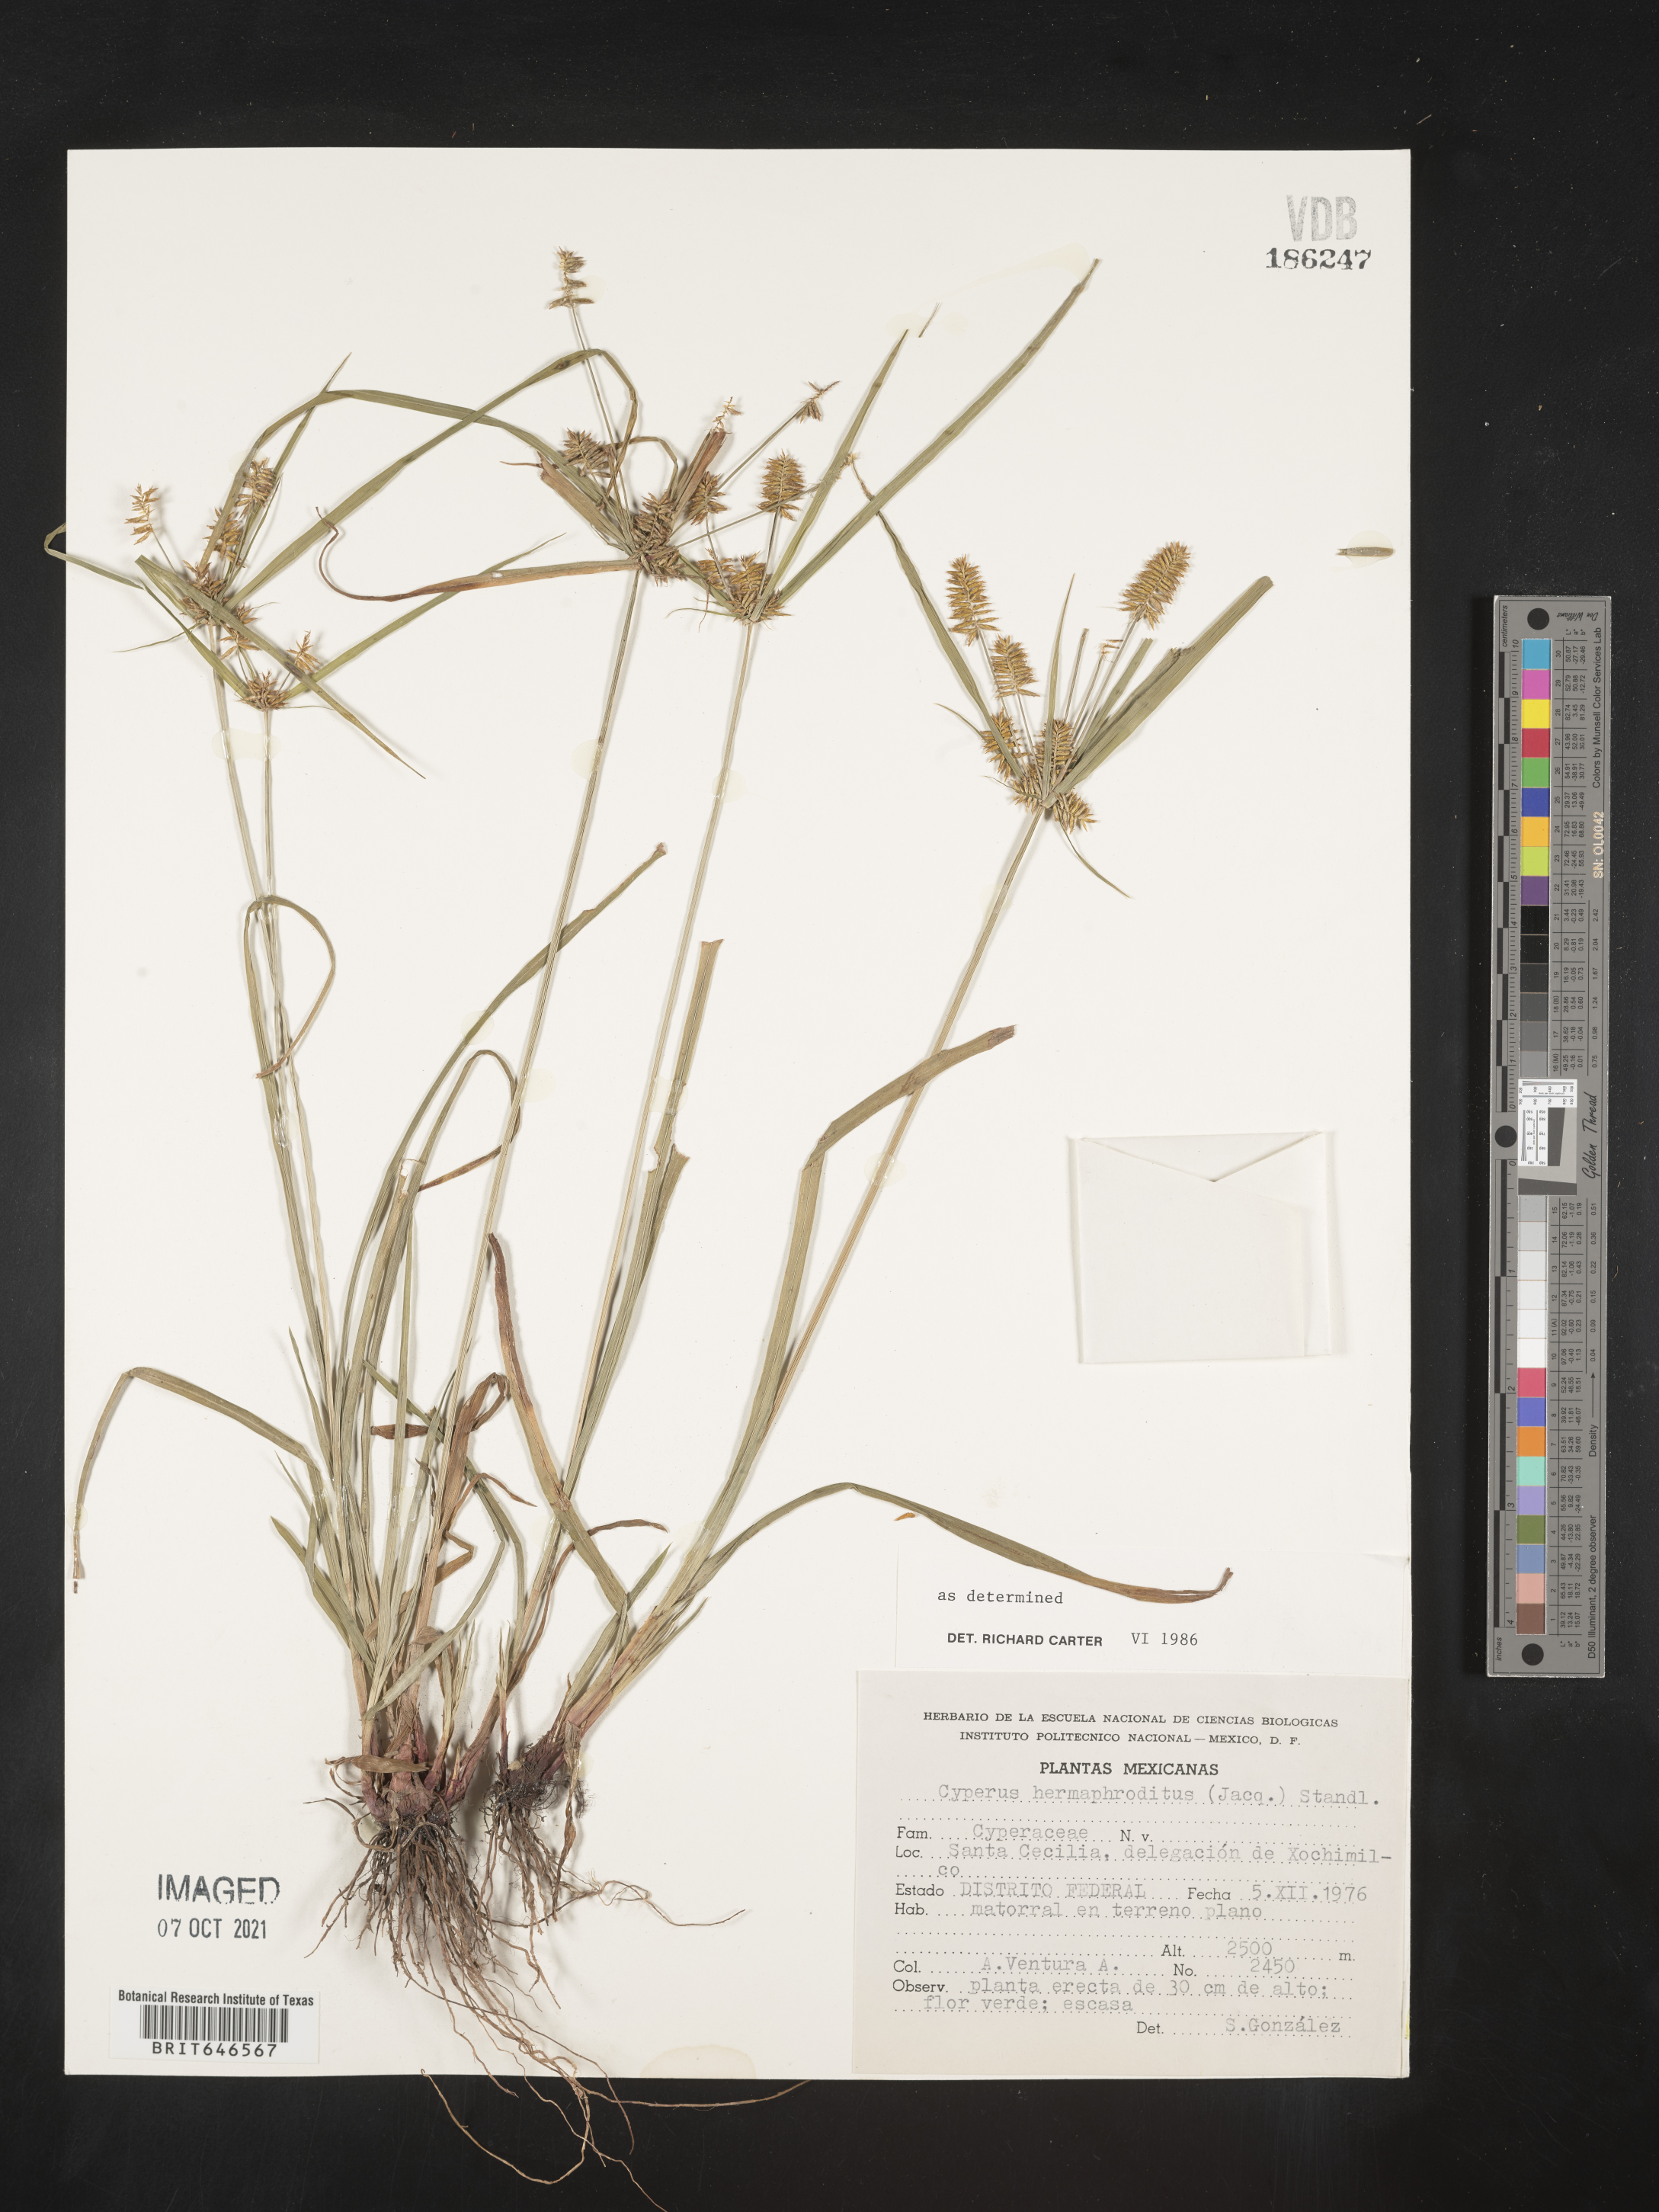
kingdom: Plantae
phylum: Tracheophyta
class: Liliopsida
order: Poales
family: Cyperaceae
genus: Cyperus
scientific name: Cyperus
